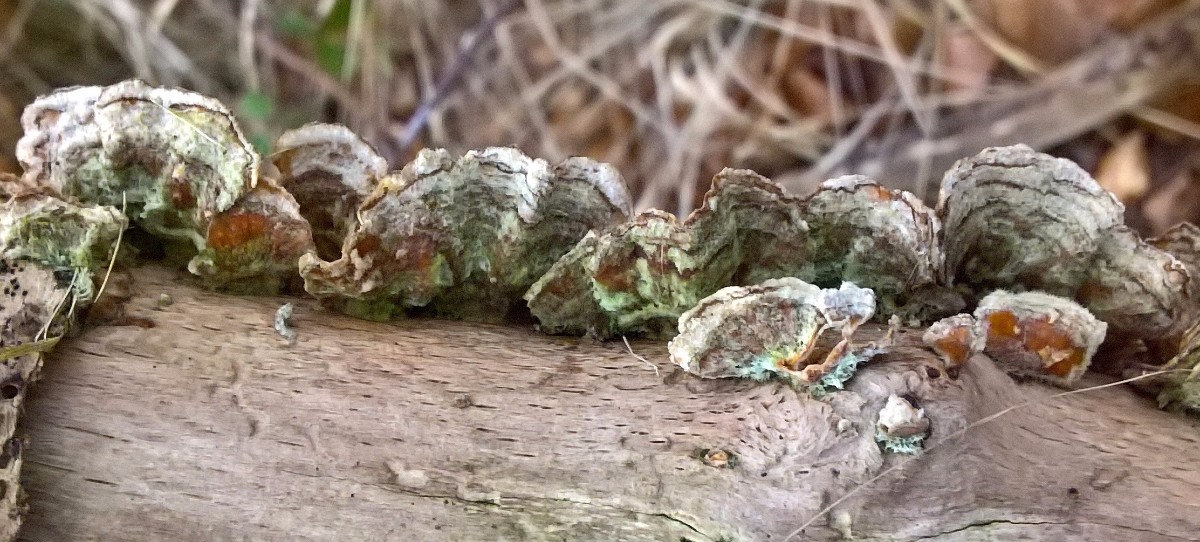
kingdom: Fungi
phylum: Basidiomycota
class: Agaricomycetes
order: Russulales
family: Stereaceae
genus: Stereum
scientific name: Stereum hirsutum
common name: håret lædersvamp
